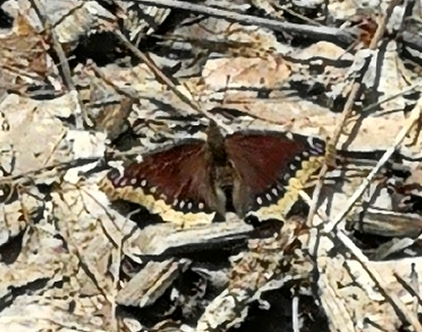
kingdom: Animalia
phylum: Arthropoda
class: Insecta
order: Lepidoptera
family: Nymphalidae
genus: Nymphalis
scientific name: Nymphalis antiopa
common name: Mourning Cloak
